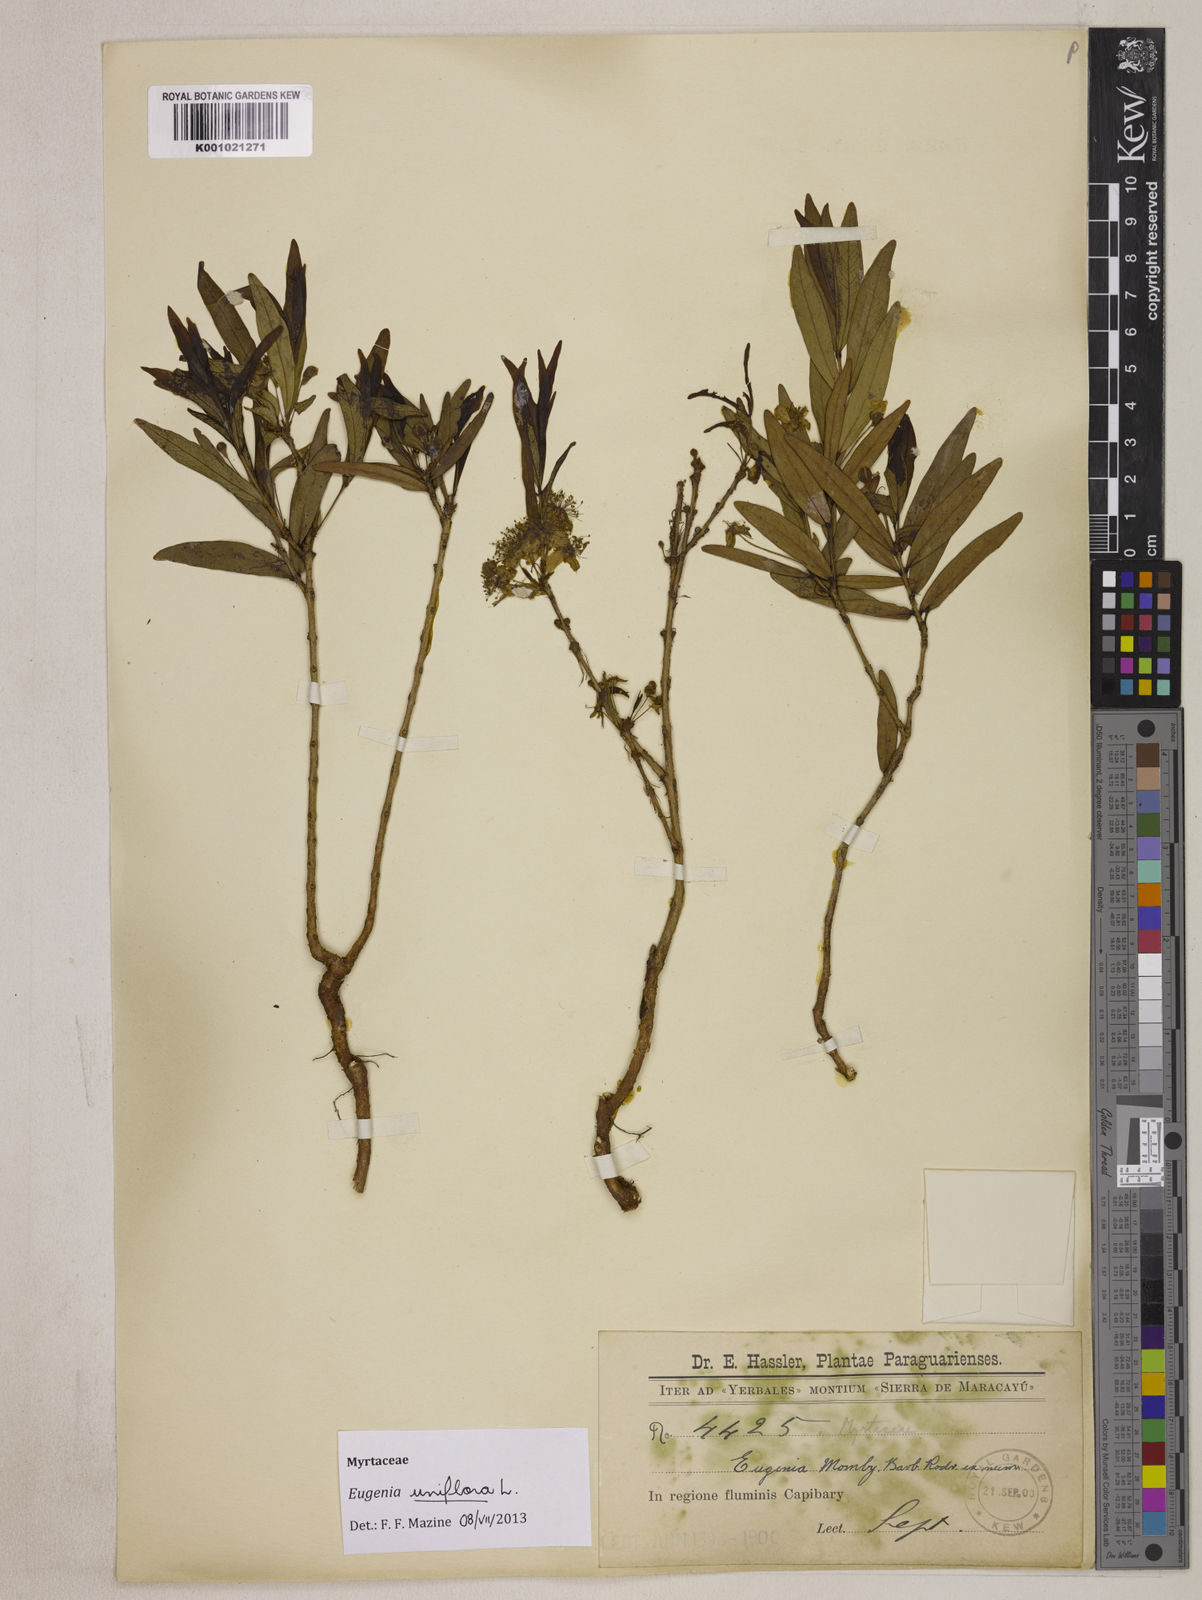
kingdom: Plantae
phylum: Tracheophyta
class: Magnoliopsida
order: Myrtales
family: Myrtaceae
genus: Eugenia
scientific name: Eugenia uniflora
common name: Surinam cherry
